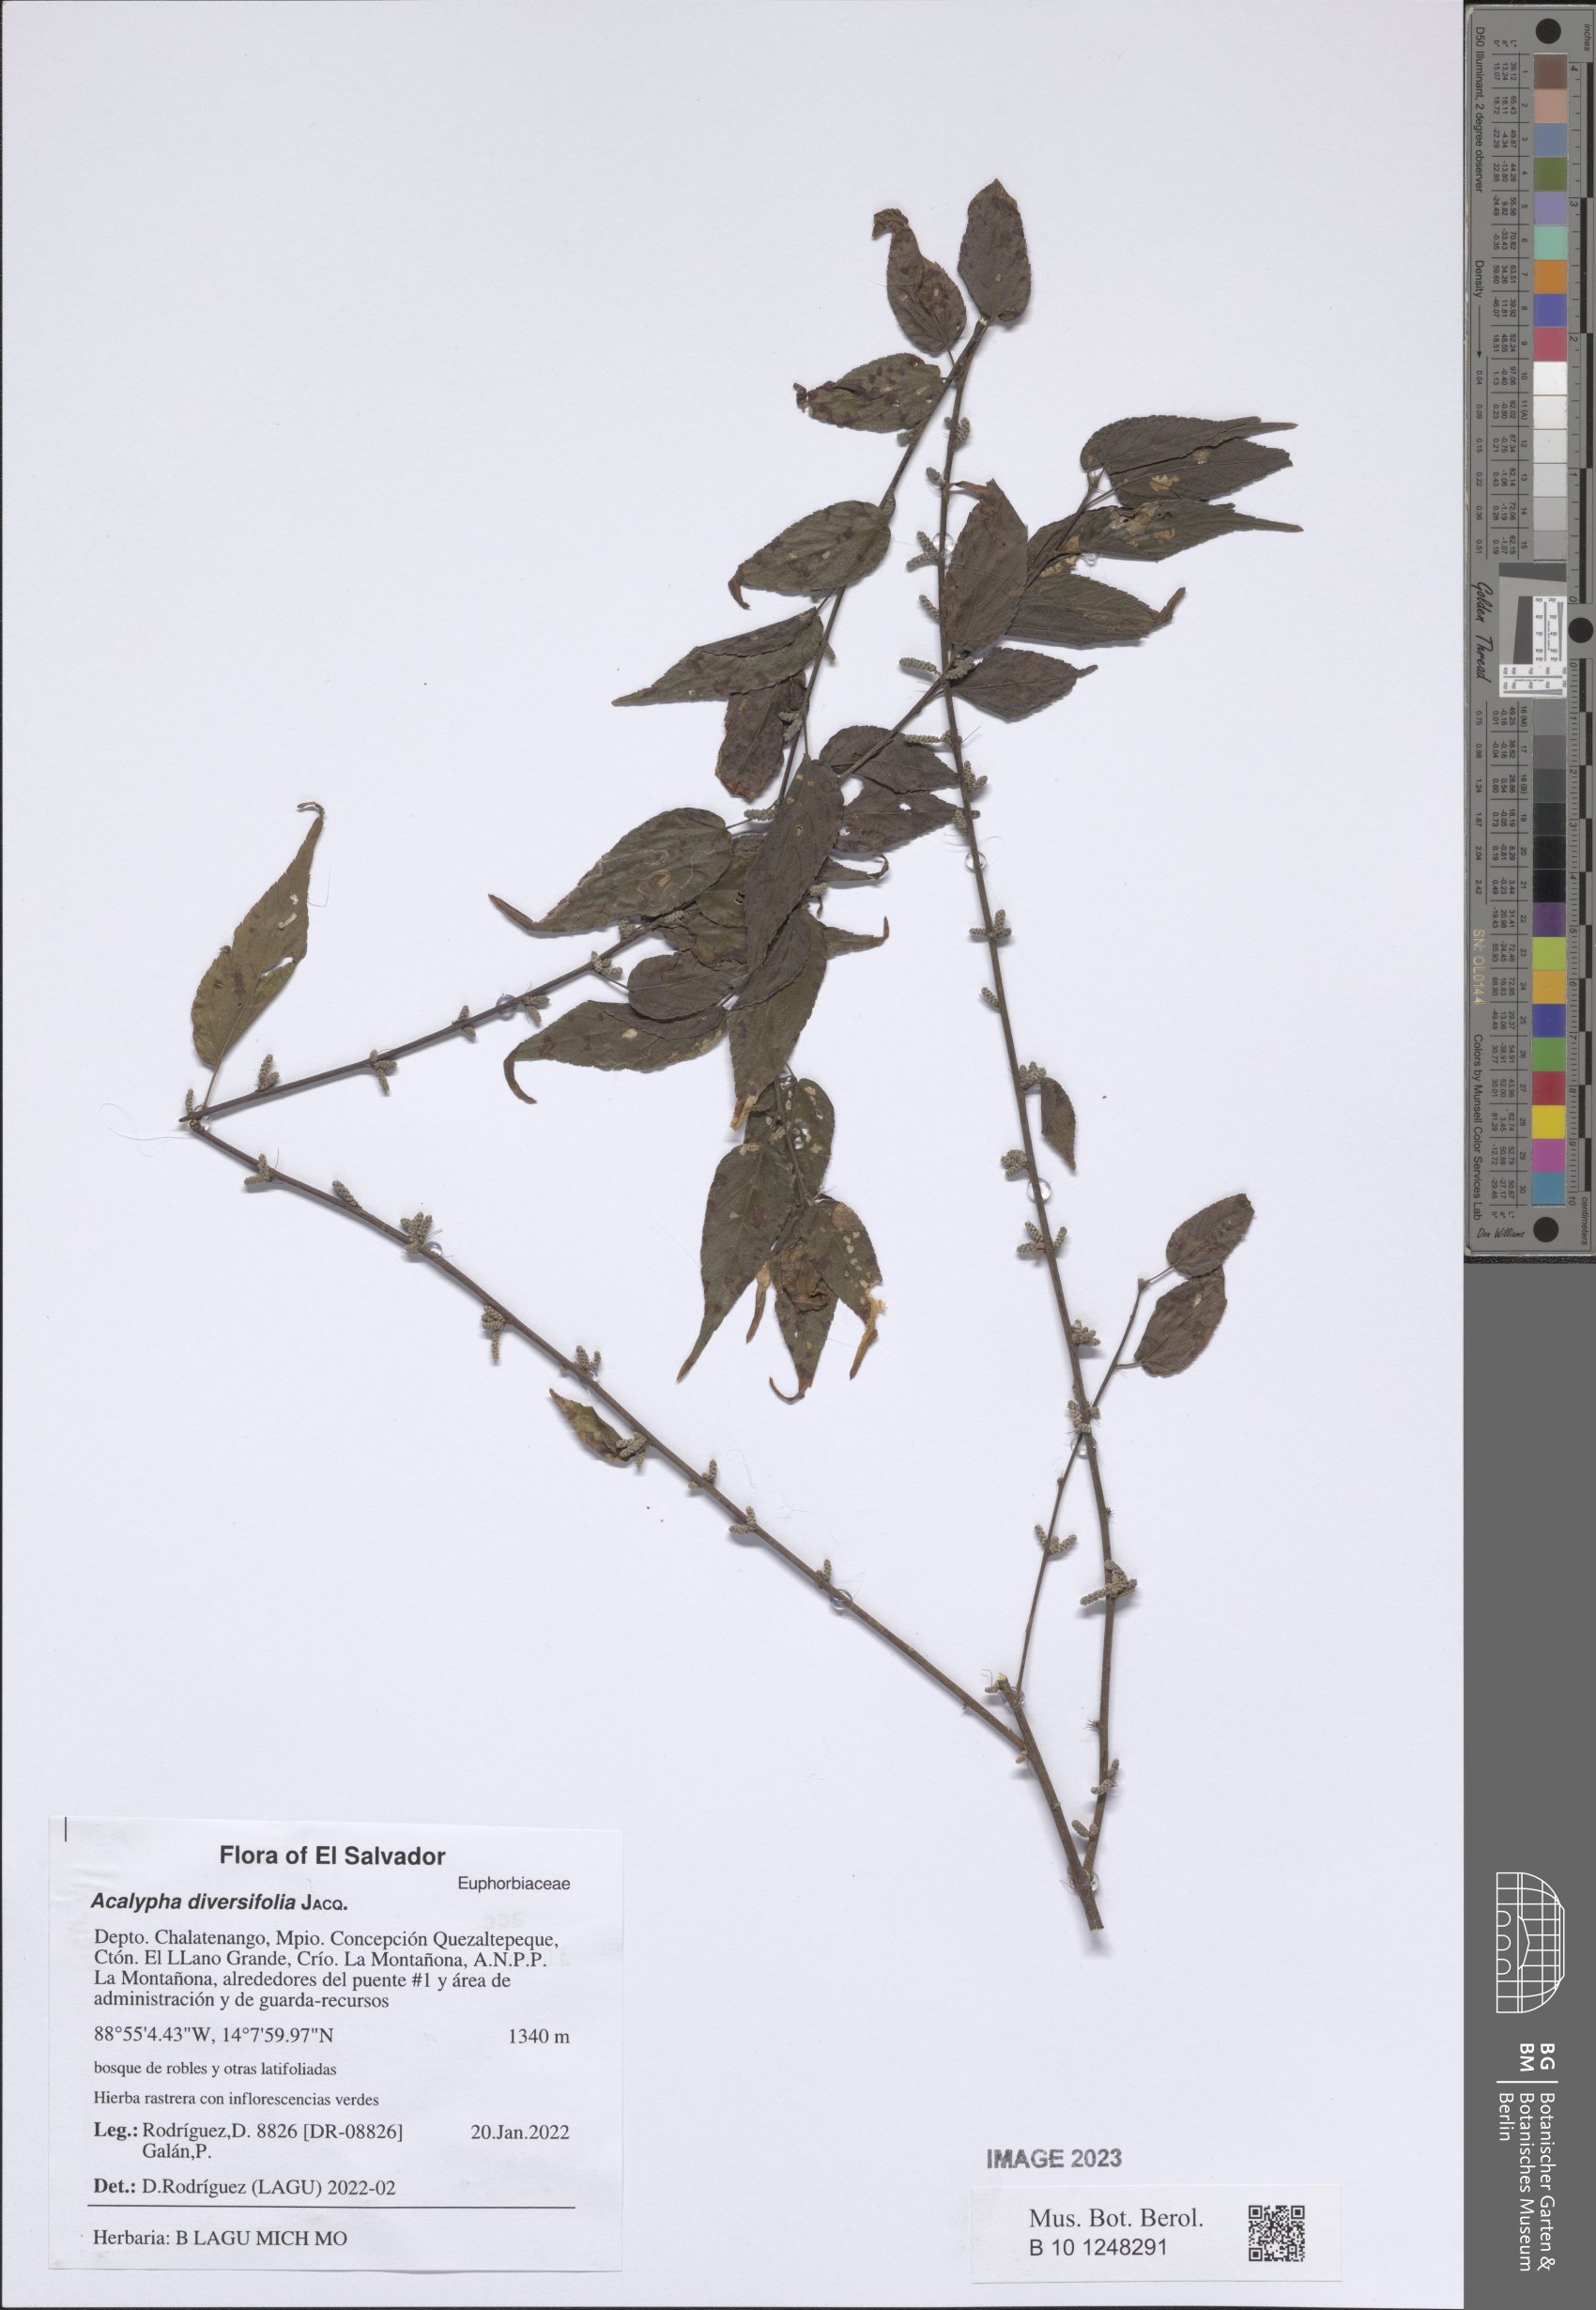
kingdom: Plantae
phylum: Tracheophyta
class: Magnoliopsida
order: Malpighiales
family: Euphorbiaceae
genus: Acalypha
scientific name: Acalypha diversifolia
